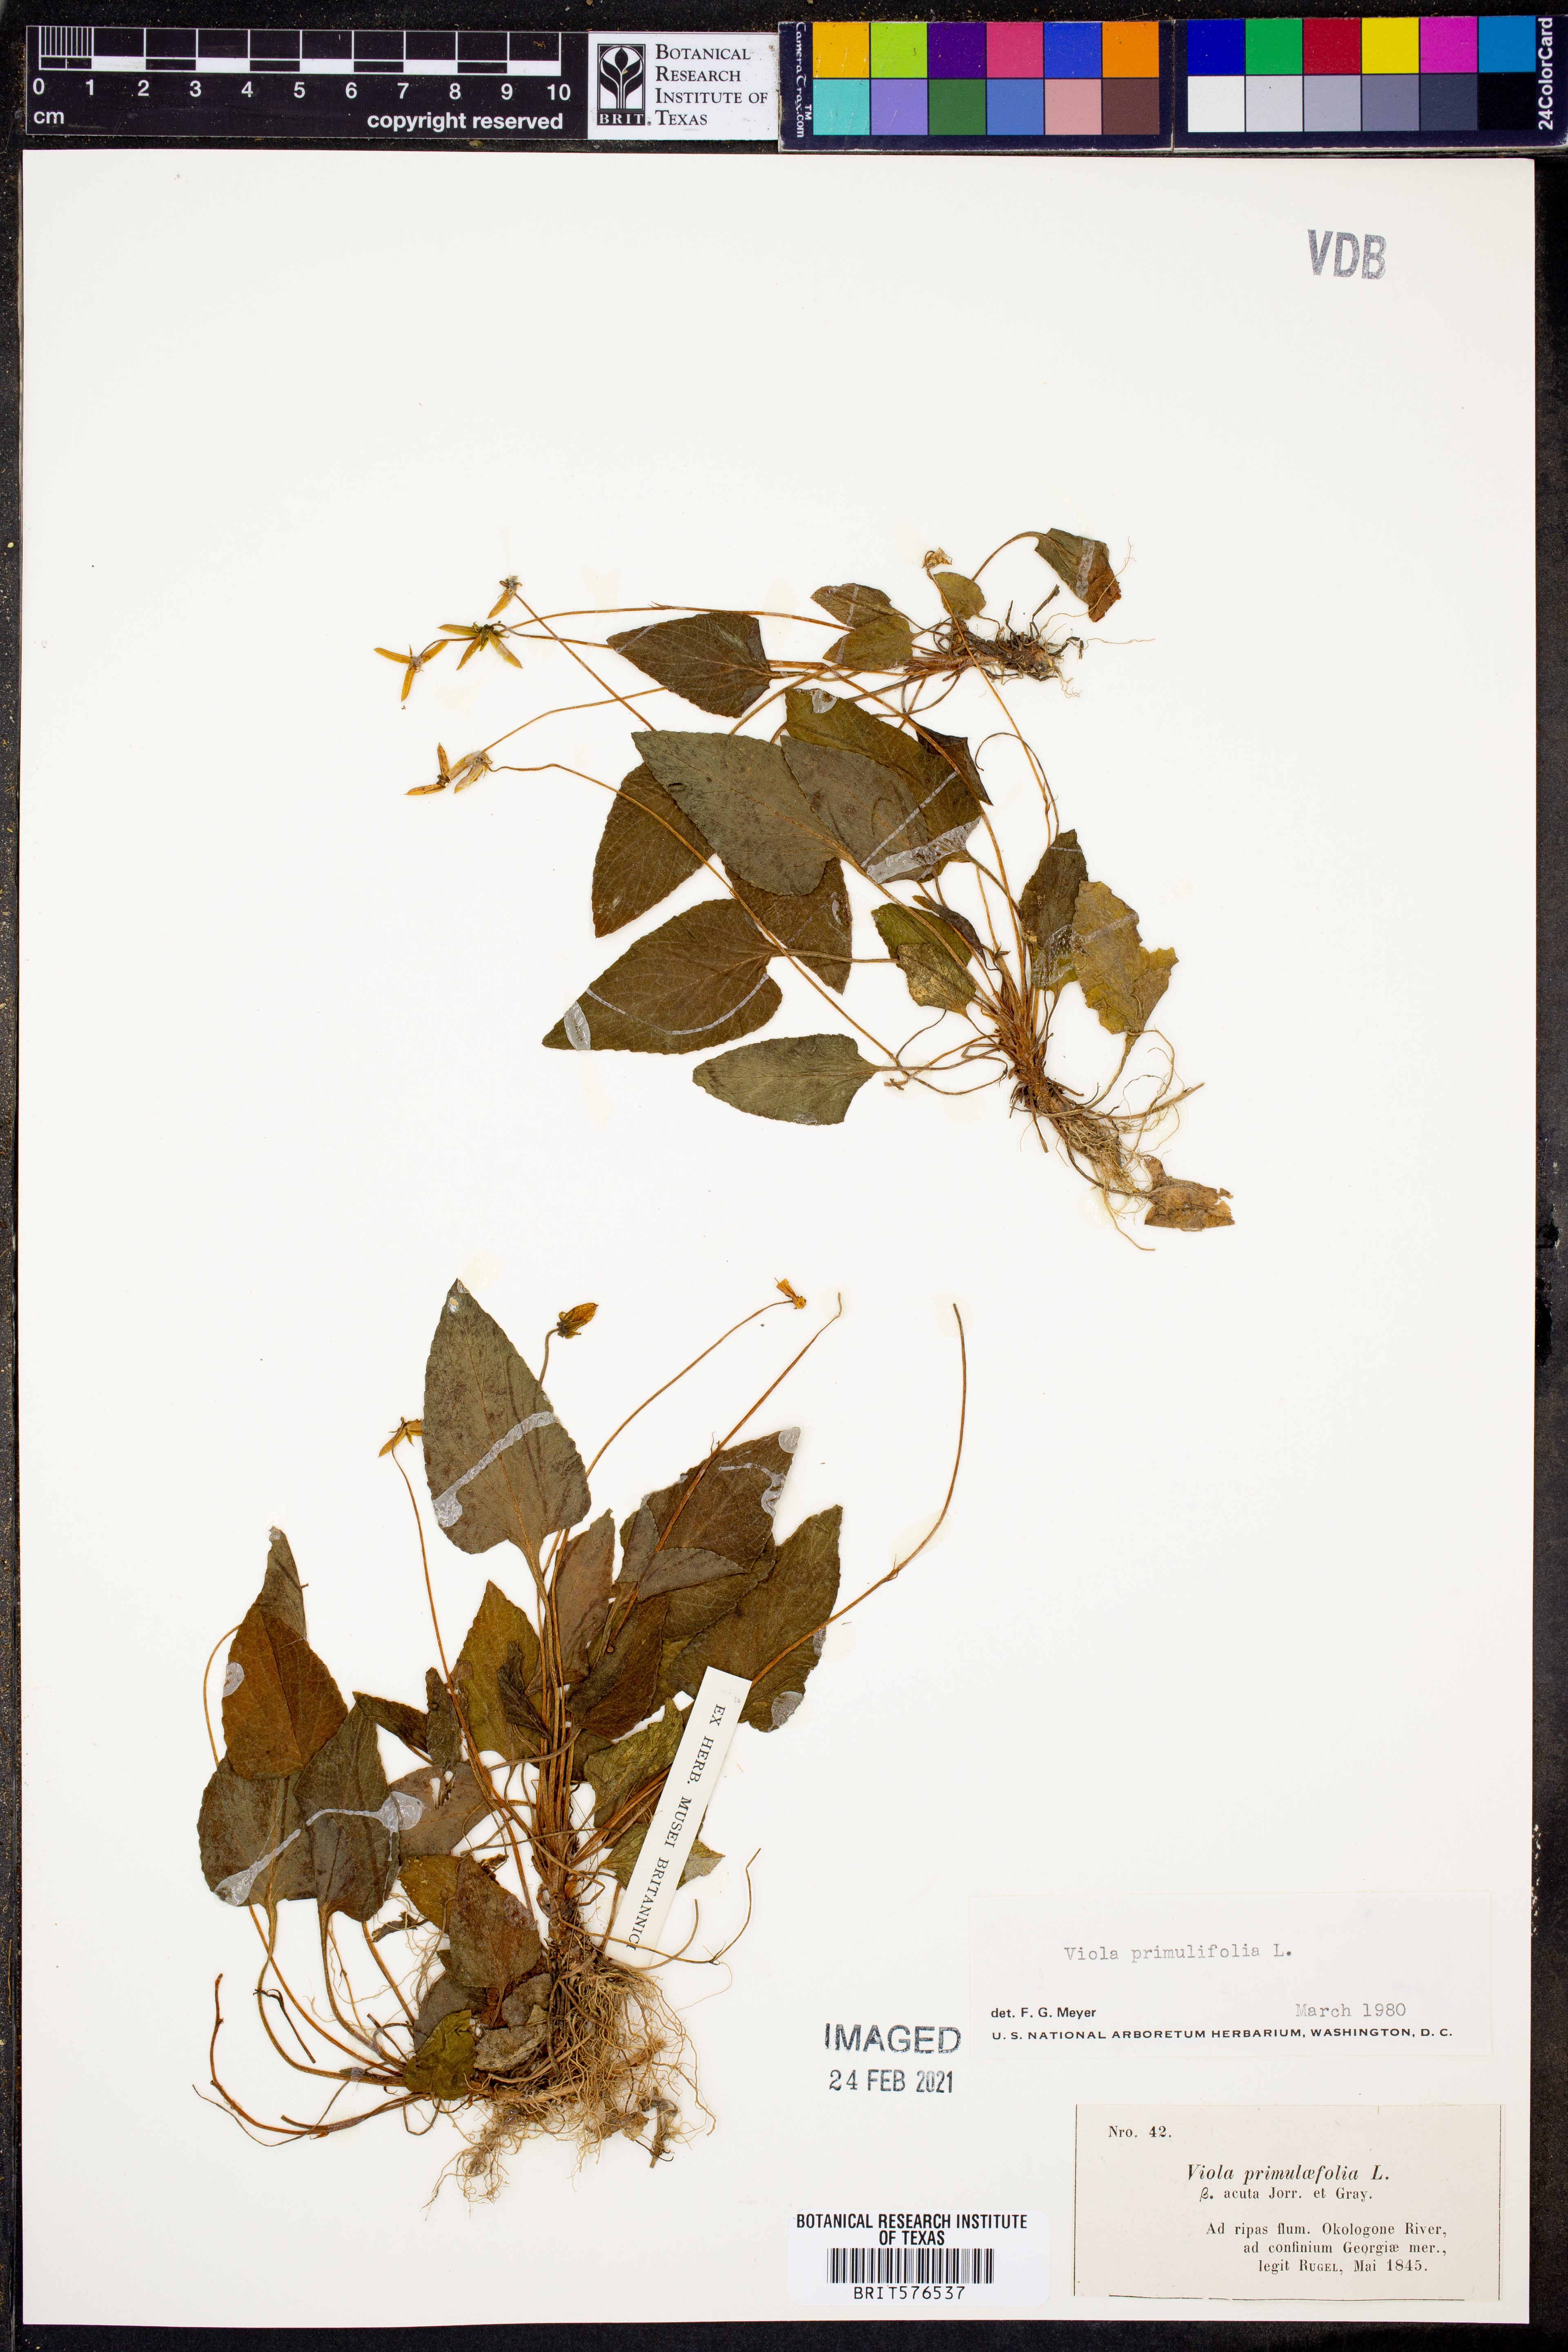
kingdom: Plantae
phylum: Tracheophyta
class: Magnoliopsida
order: Malpighiales
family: Violaceae
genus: Viola
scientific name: Viola primulifolia
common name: Primrose-leaf violet
